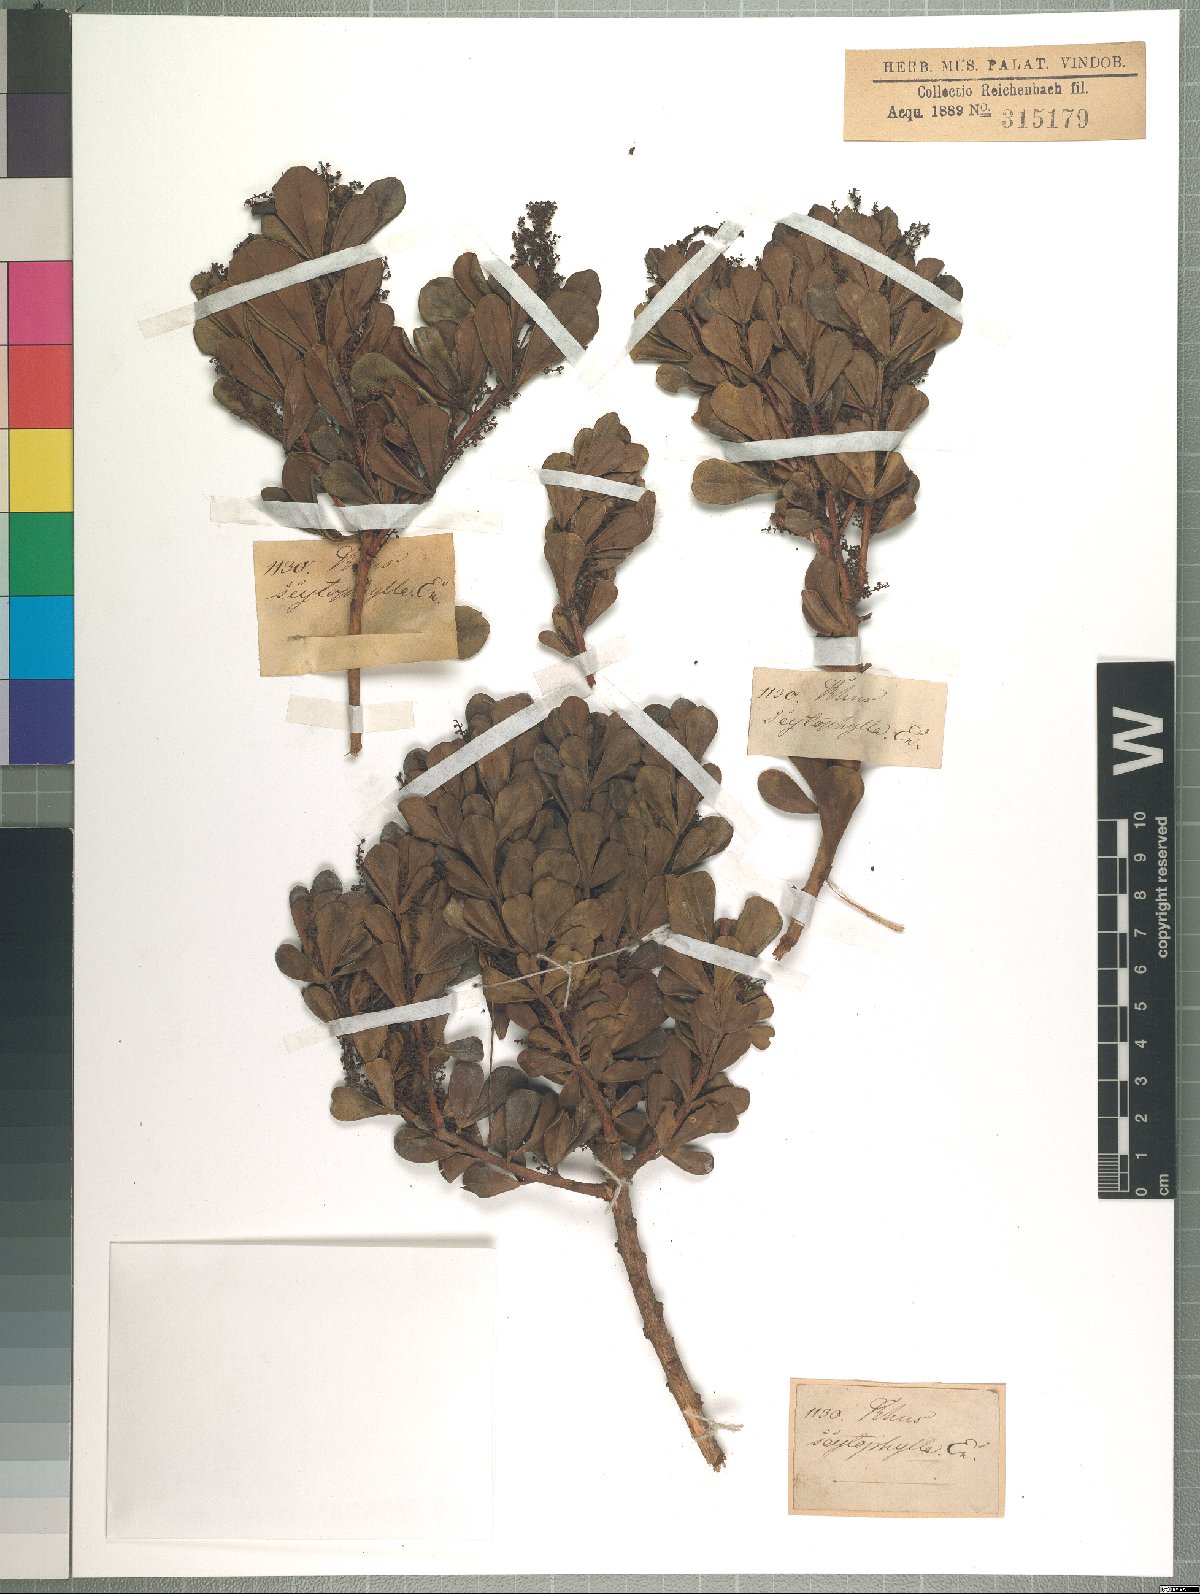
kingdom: Plantae
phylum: Tracheophyta
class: Magnoliopsida
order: Sapindales
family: Anacardiaceae
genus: Searsia
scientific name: Searsia scytophylla
